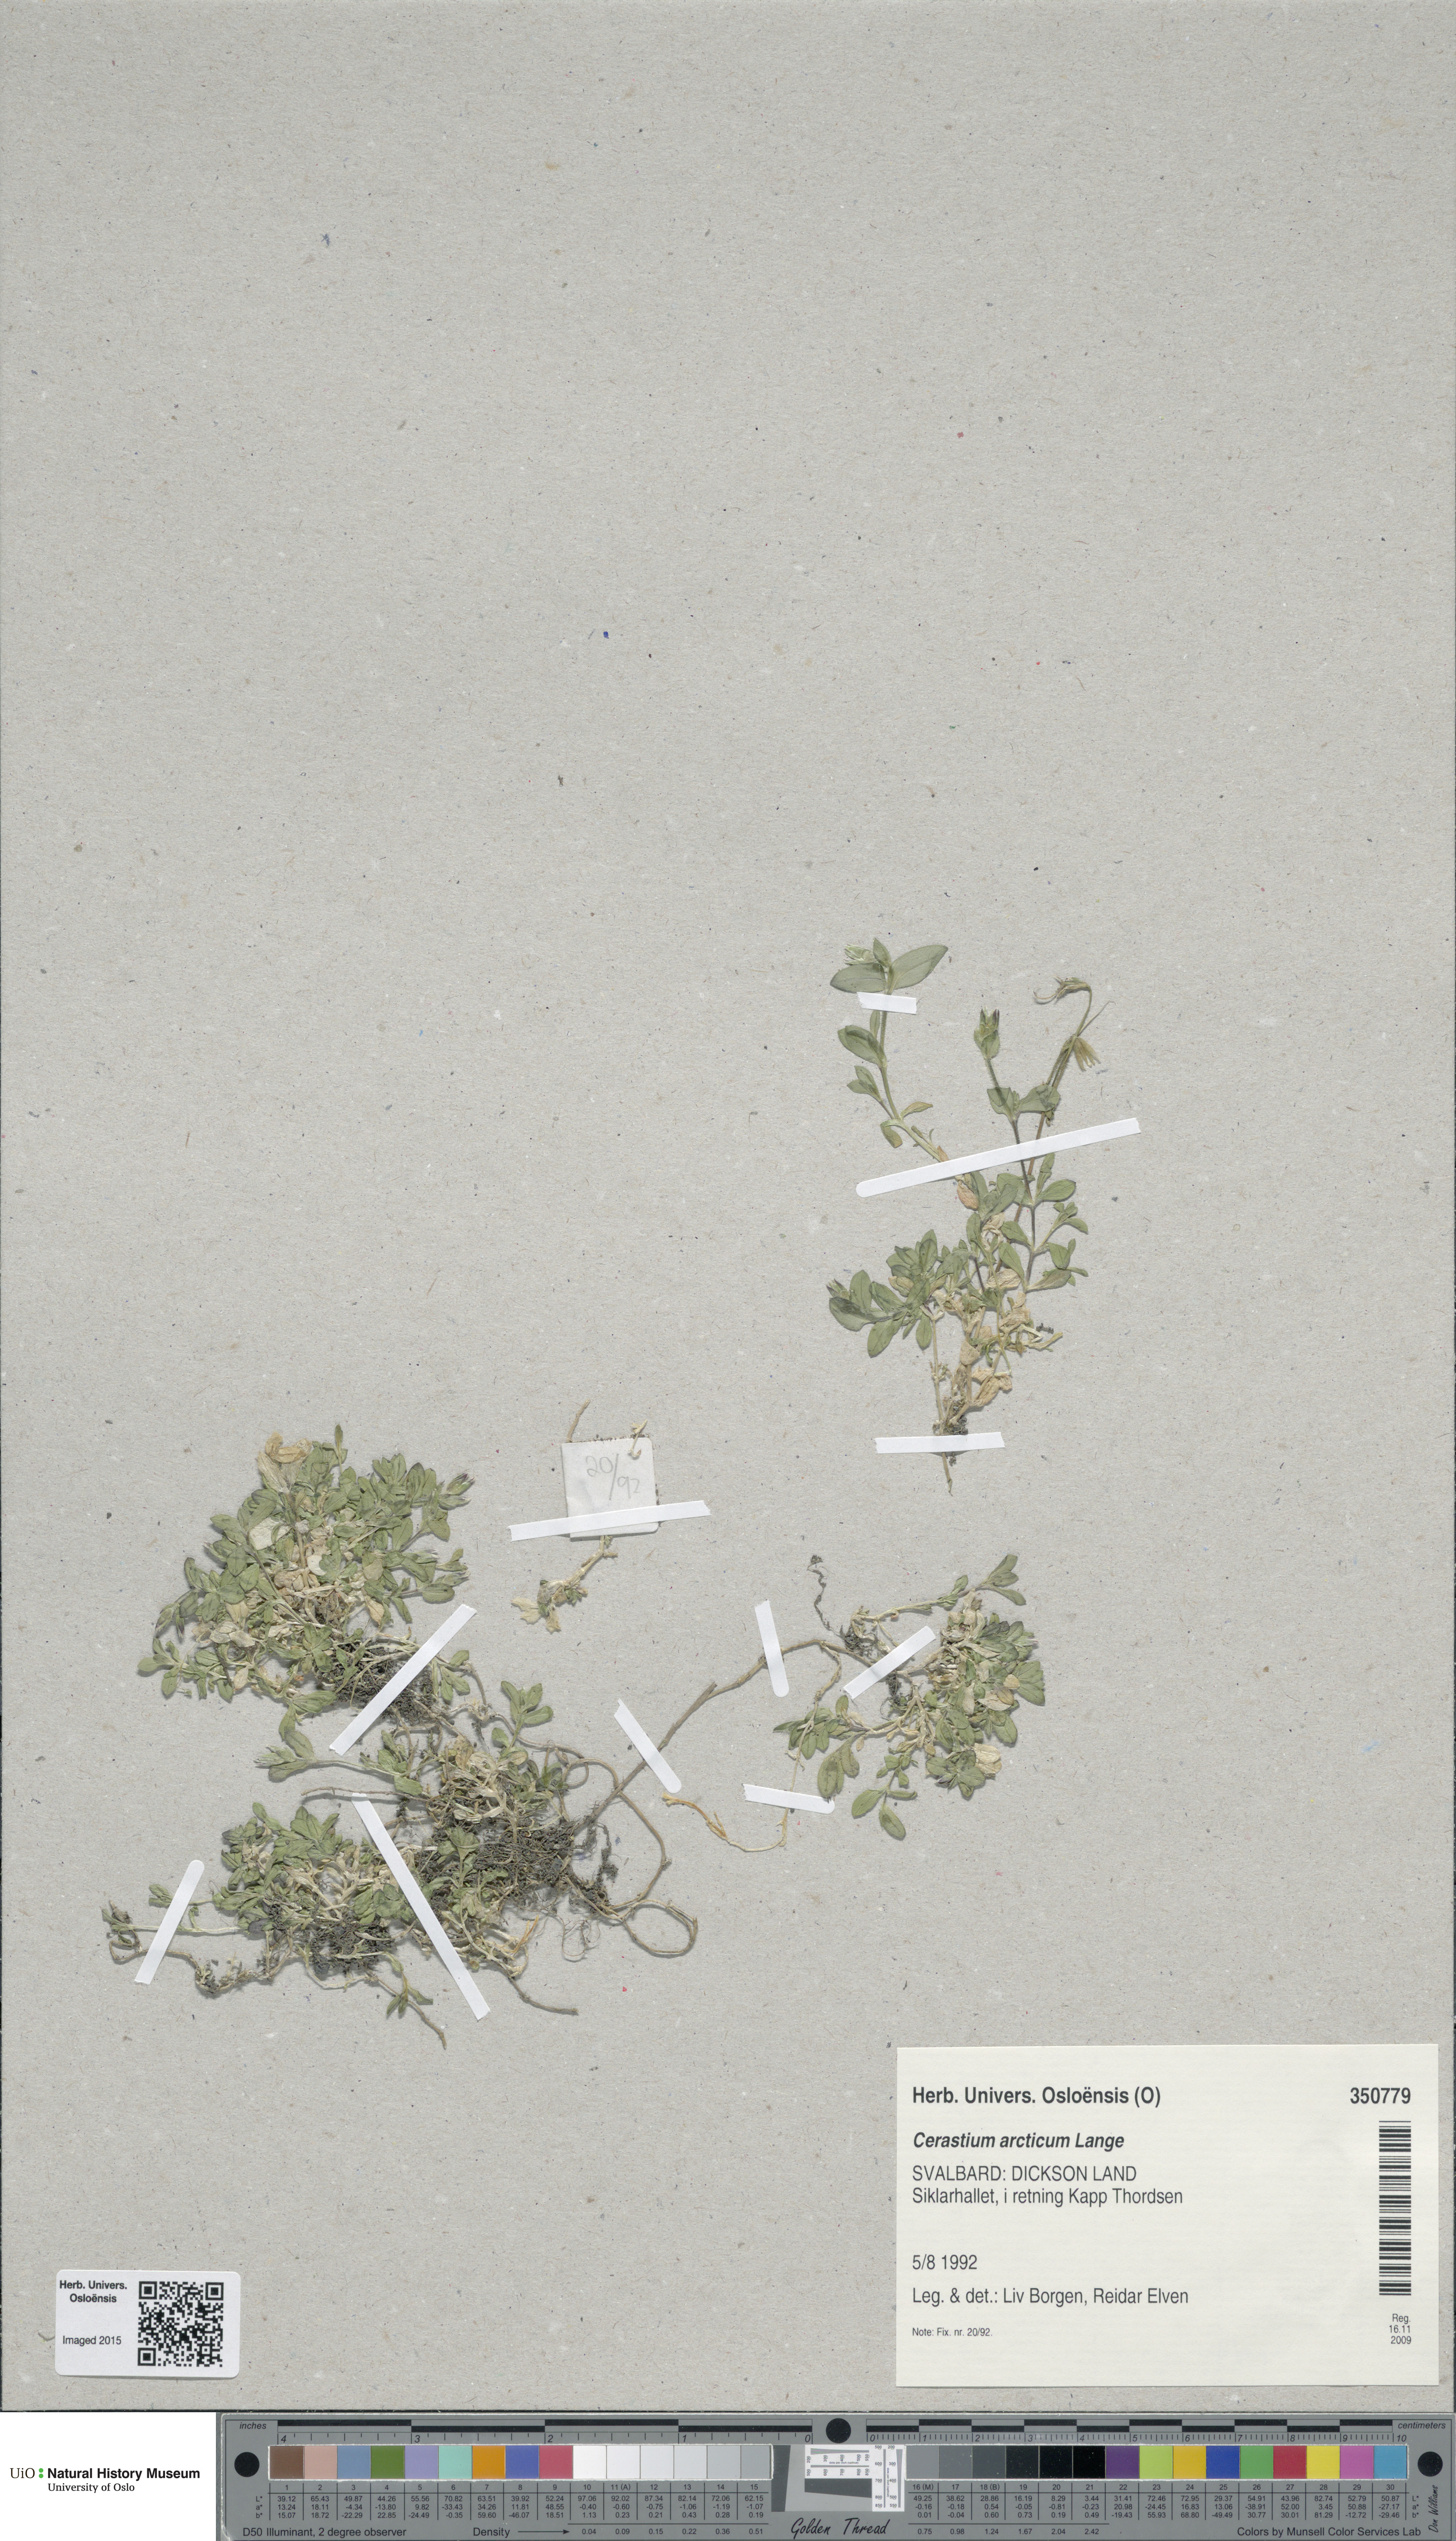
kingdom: Plantae
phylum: Tracheophyta
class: Magnoliopsida
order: Caryophyllales
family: Caryophyllaceae
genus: Cerastium
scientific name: Cerastium arcticum
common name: Arctic mouse-ear
